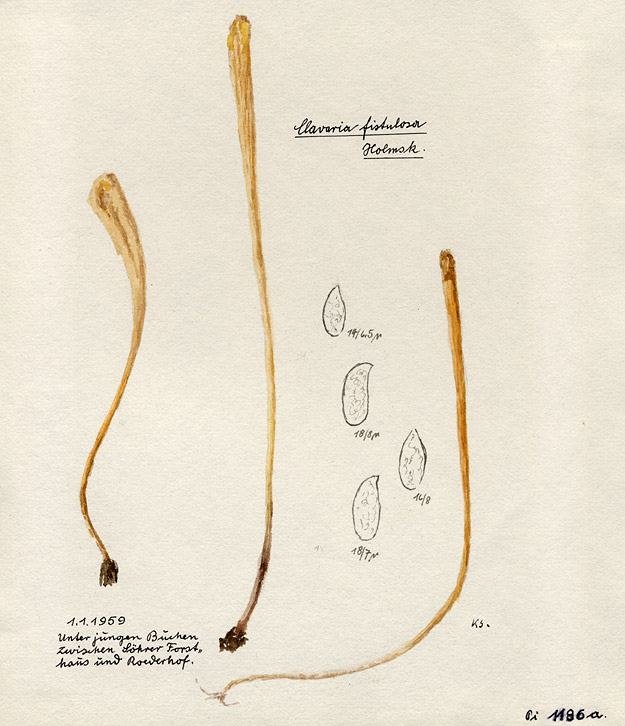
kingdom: Fungi
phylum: Basidiomycota
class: Agaricomycetes
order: Agaricales
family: Typhulaceae
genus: Typhula
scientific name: Typhula fistulosa
